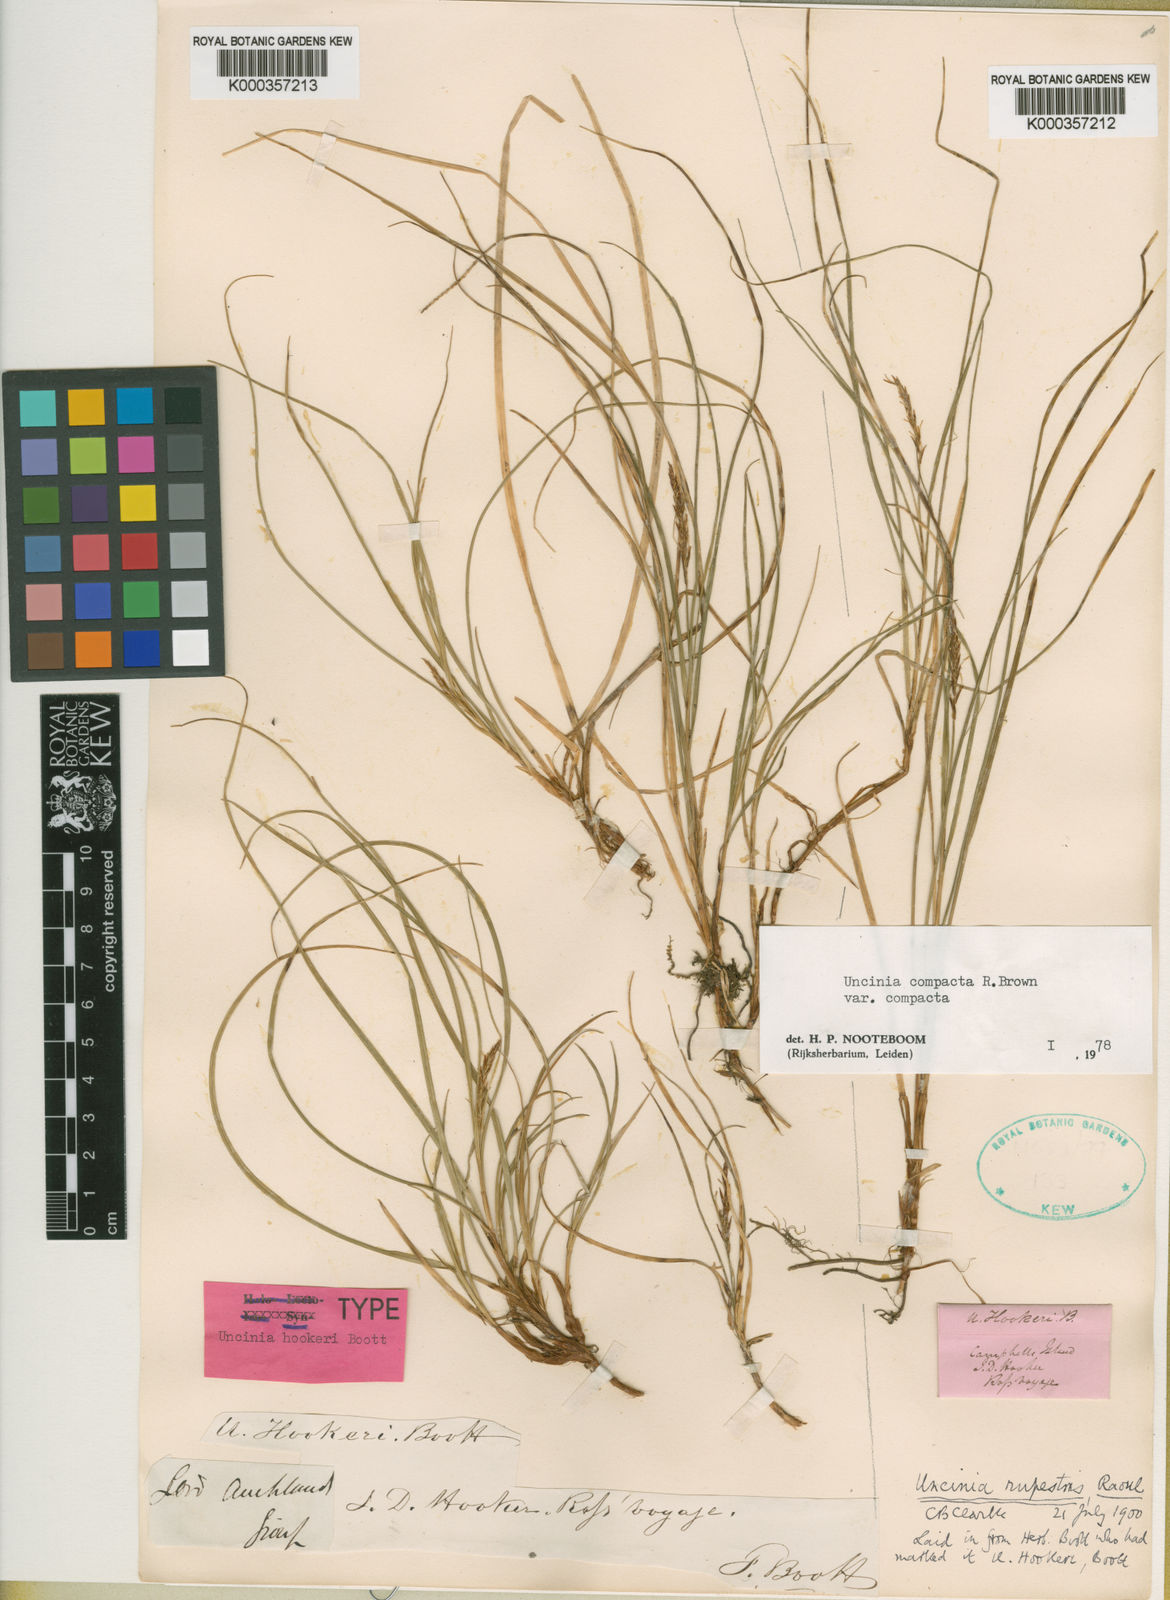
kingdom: Fungi
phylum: Ascomycota
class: Leotiomycetes
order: Helotiales
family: Hamatocanthoscyphaceae
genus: Uncinia
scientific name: Uncinia
